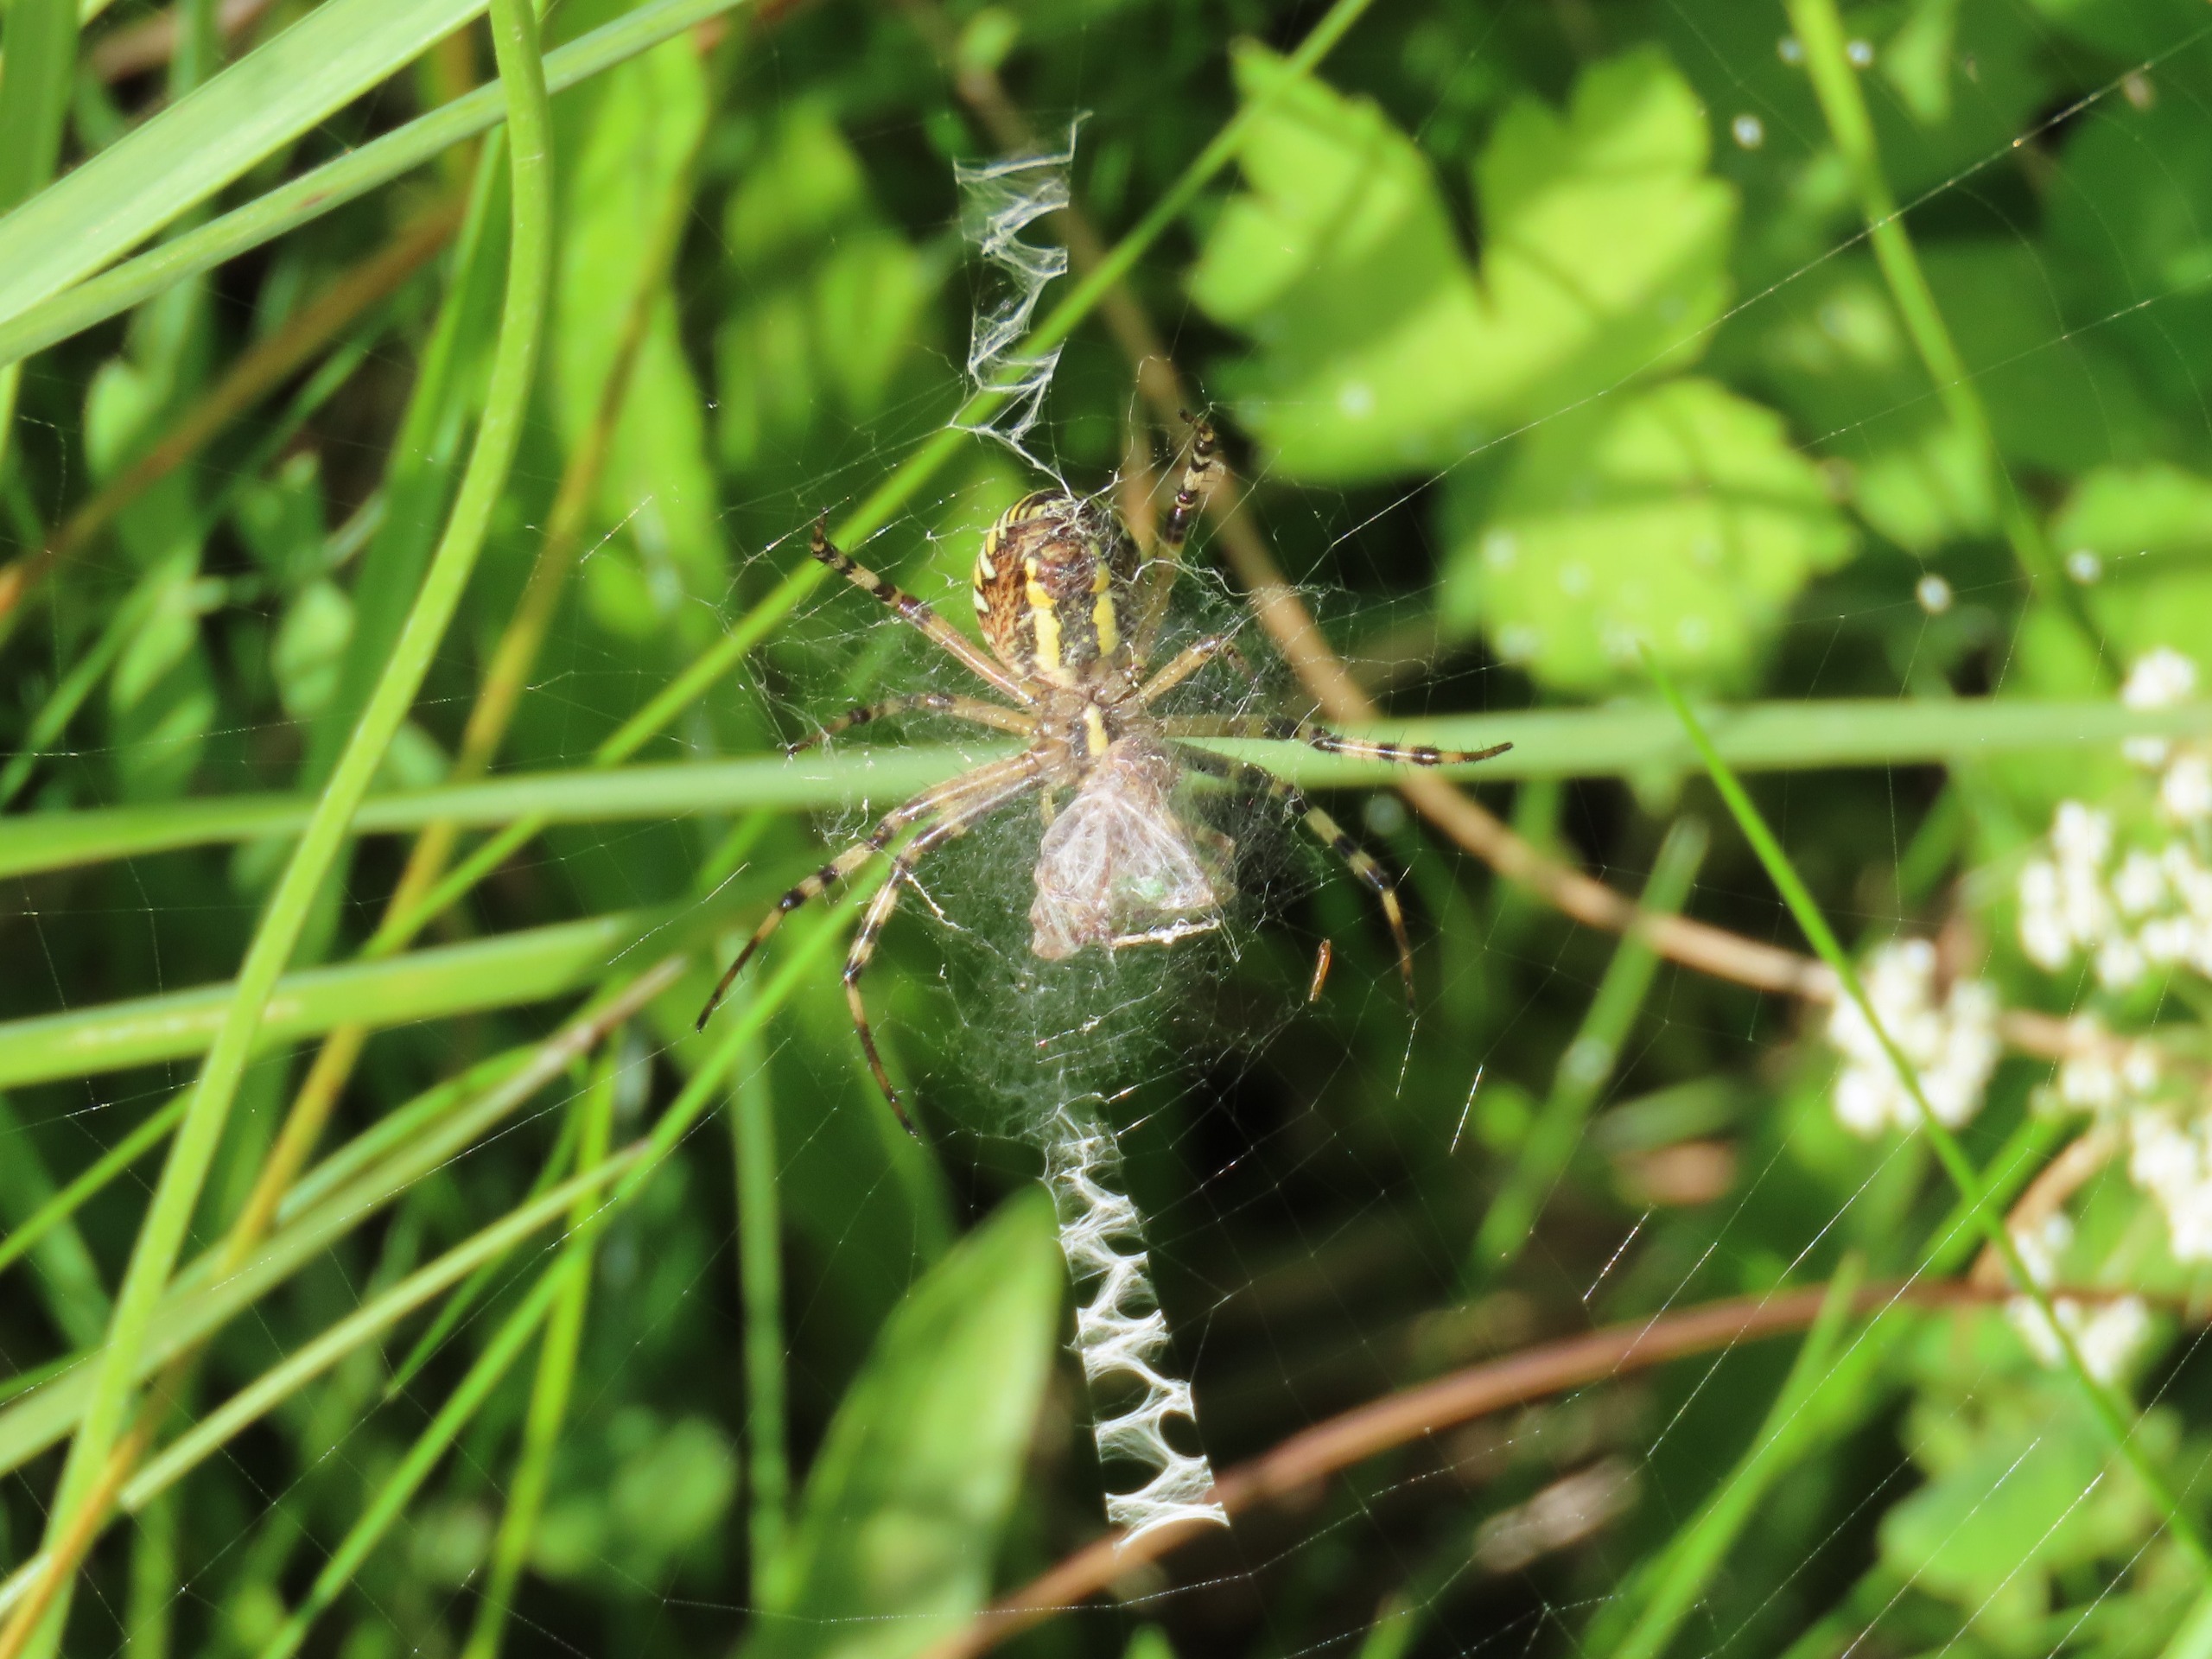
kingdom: Animalia
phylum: Arthropoda
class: Arachnida
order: Araneae
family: Araneidae
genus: Argiope
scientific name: Argiope bruennichi
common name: Hvepseedderkop
